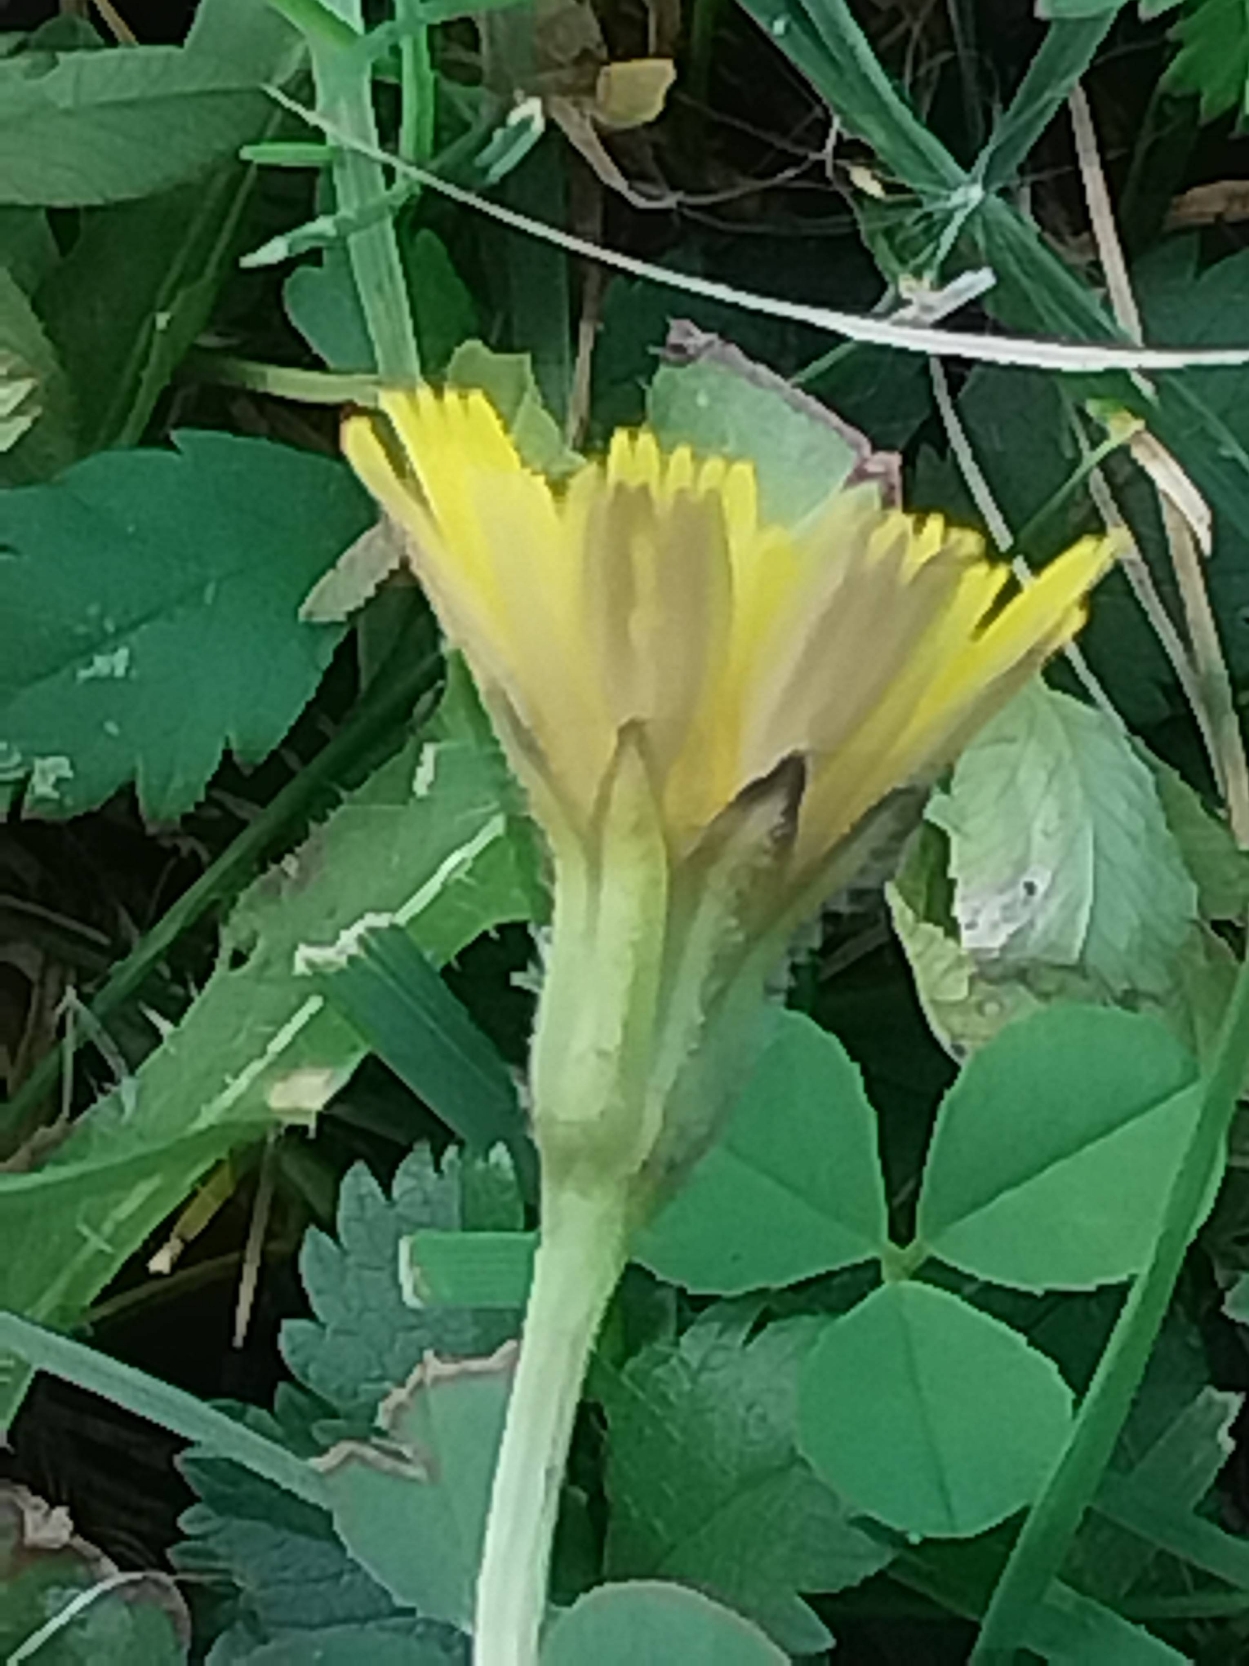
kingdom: Plantae
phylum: Tracheophyta
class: Magnoliopsida
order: Asterales
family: Asteraceae
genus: Thrincia
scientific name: Thrincia saxatilis
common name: Hundesalat
